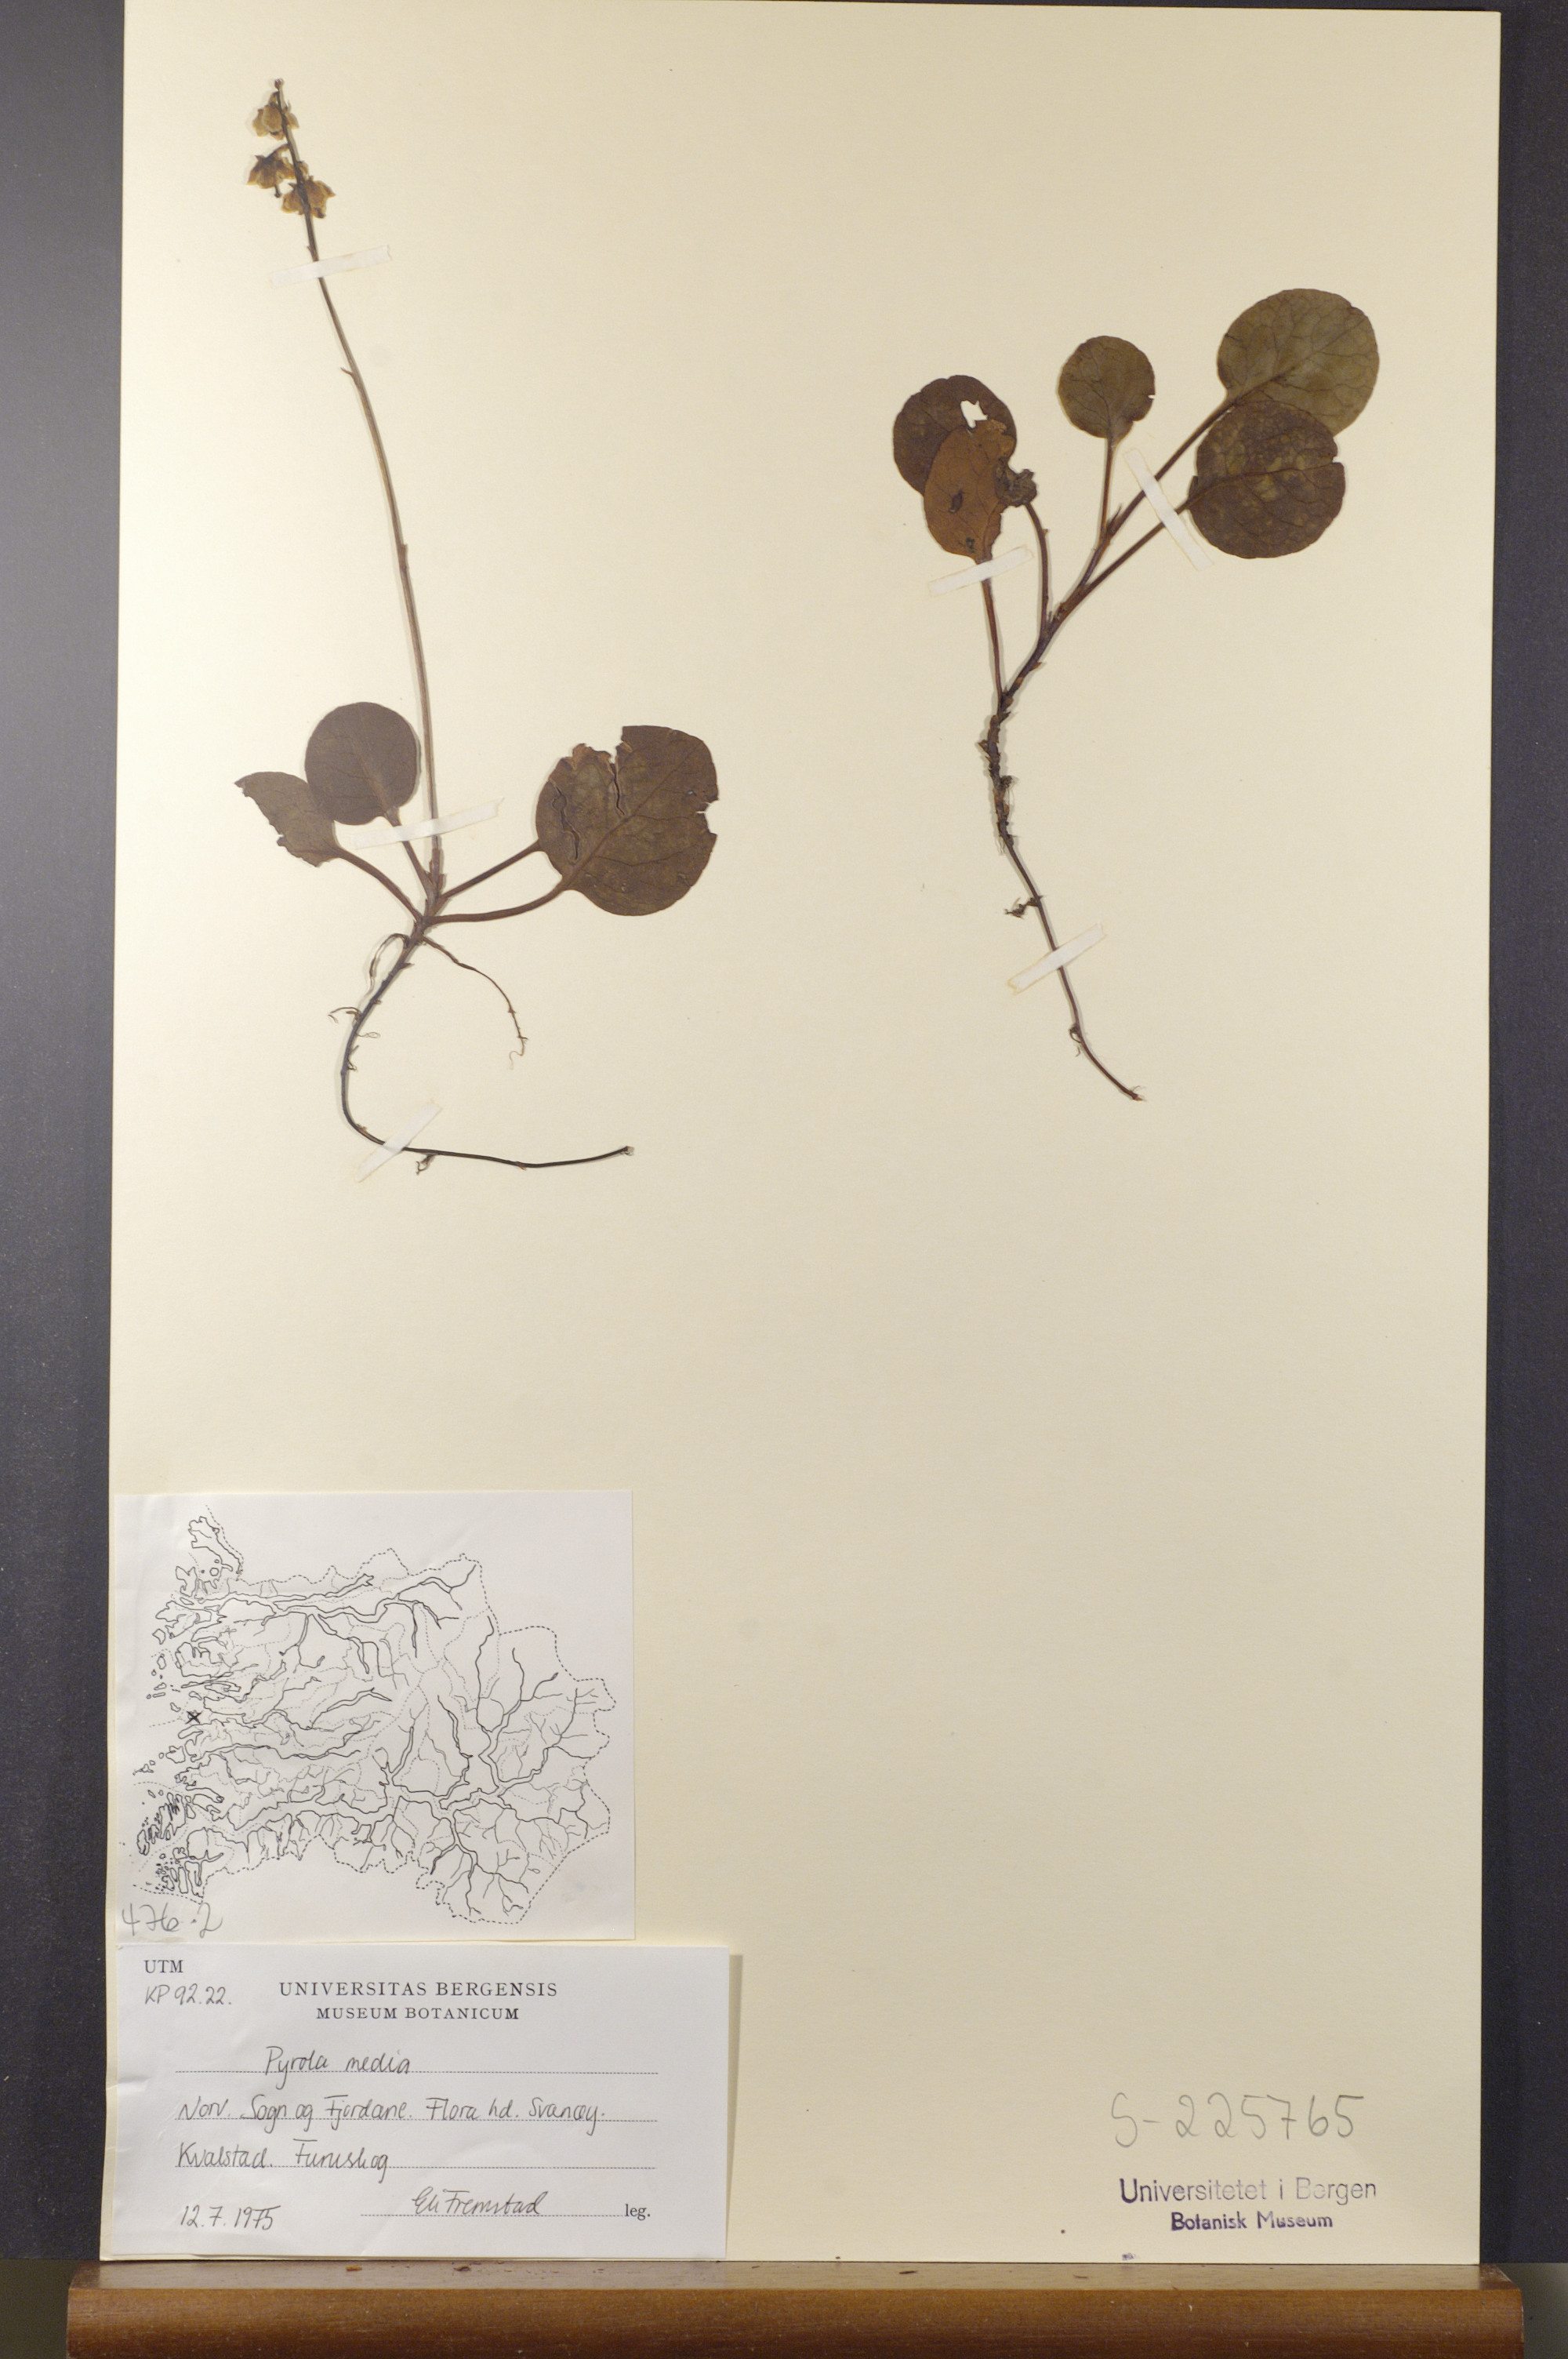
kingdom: Plantae
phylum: Tracheophyta
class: Magnoliopsida
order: Ericales
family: Ericaceae
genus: Pyrola
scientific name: Pyrola media
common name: Intermediate wintergreen
